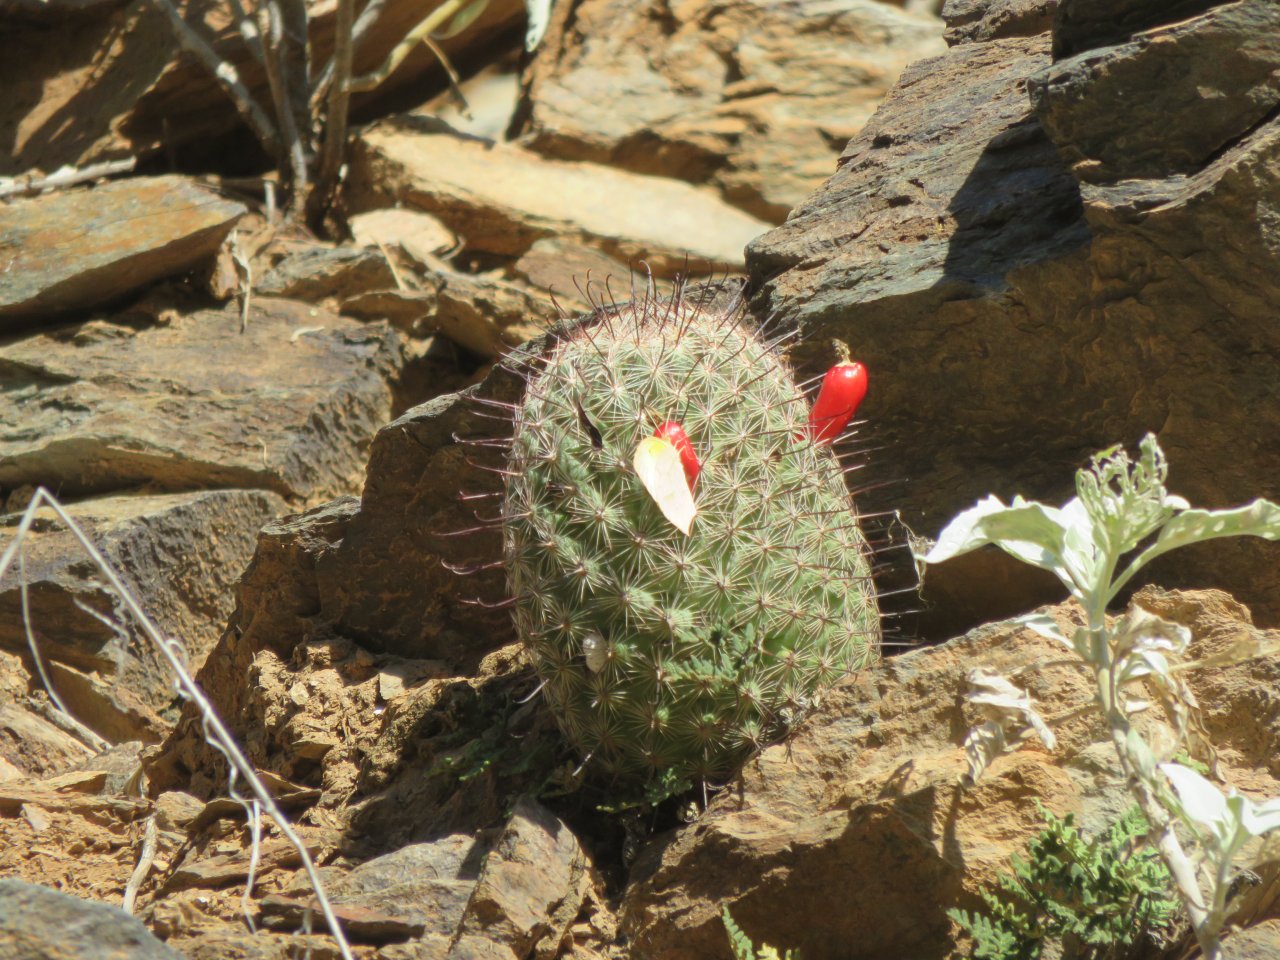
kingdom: Animalia
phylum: Arthropoda
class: Insecta
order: Lepidoptera
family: Pieridae
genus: Eurema
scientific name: Eurema mexicana
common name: Mexican Yellow
